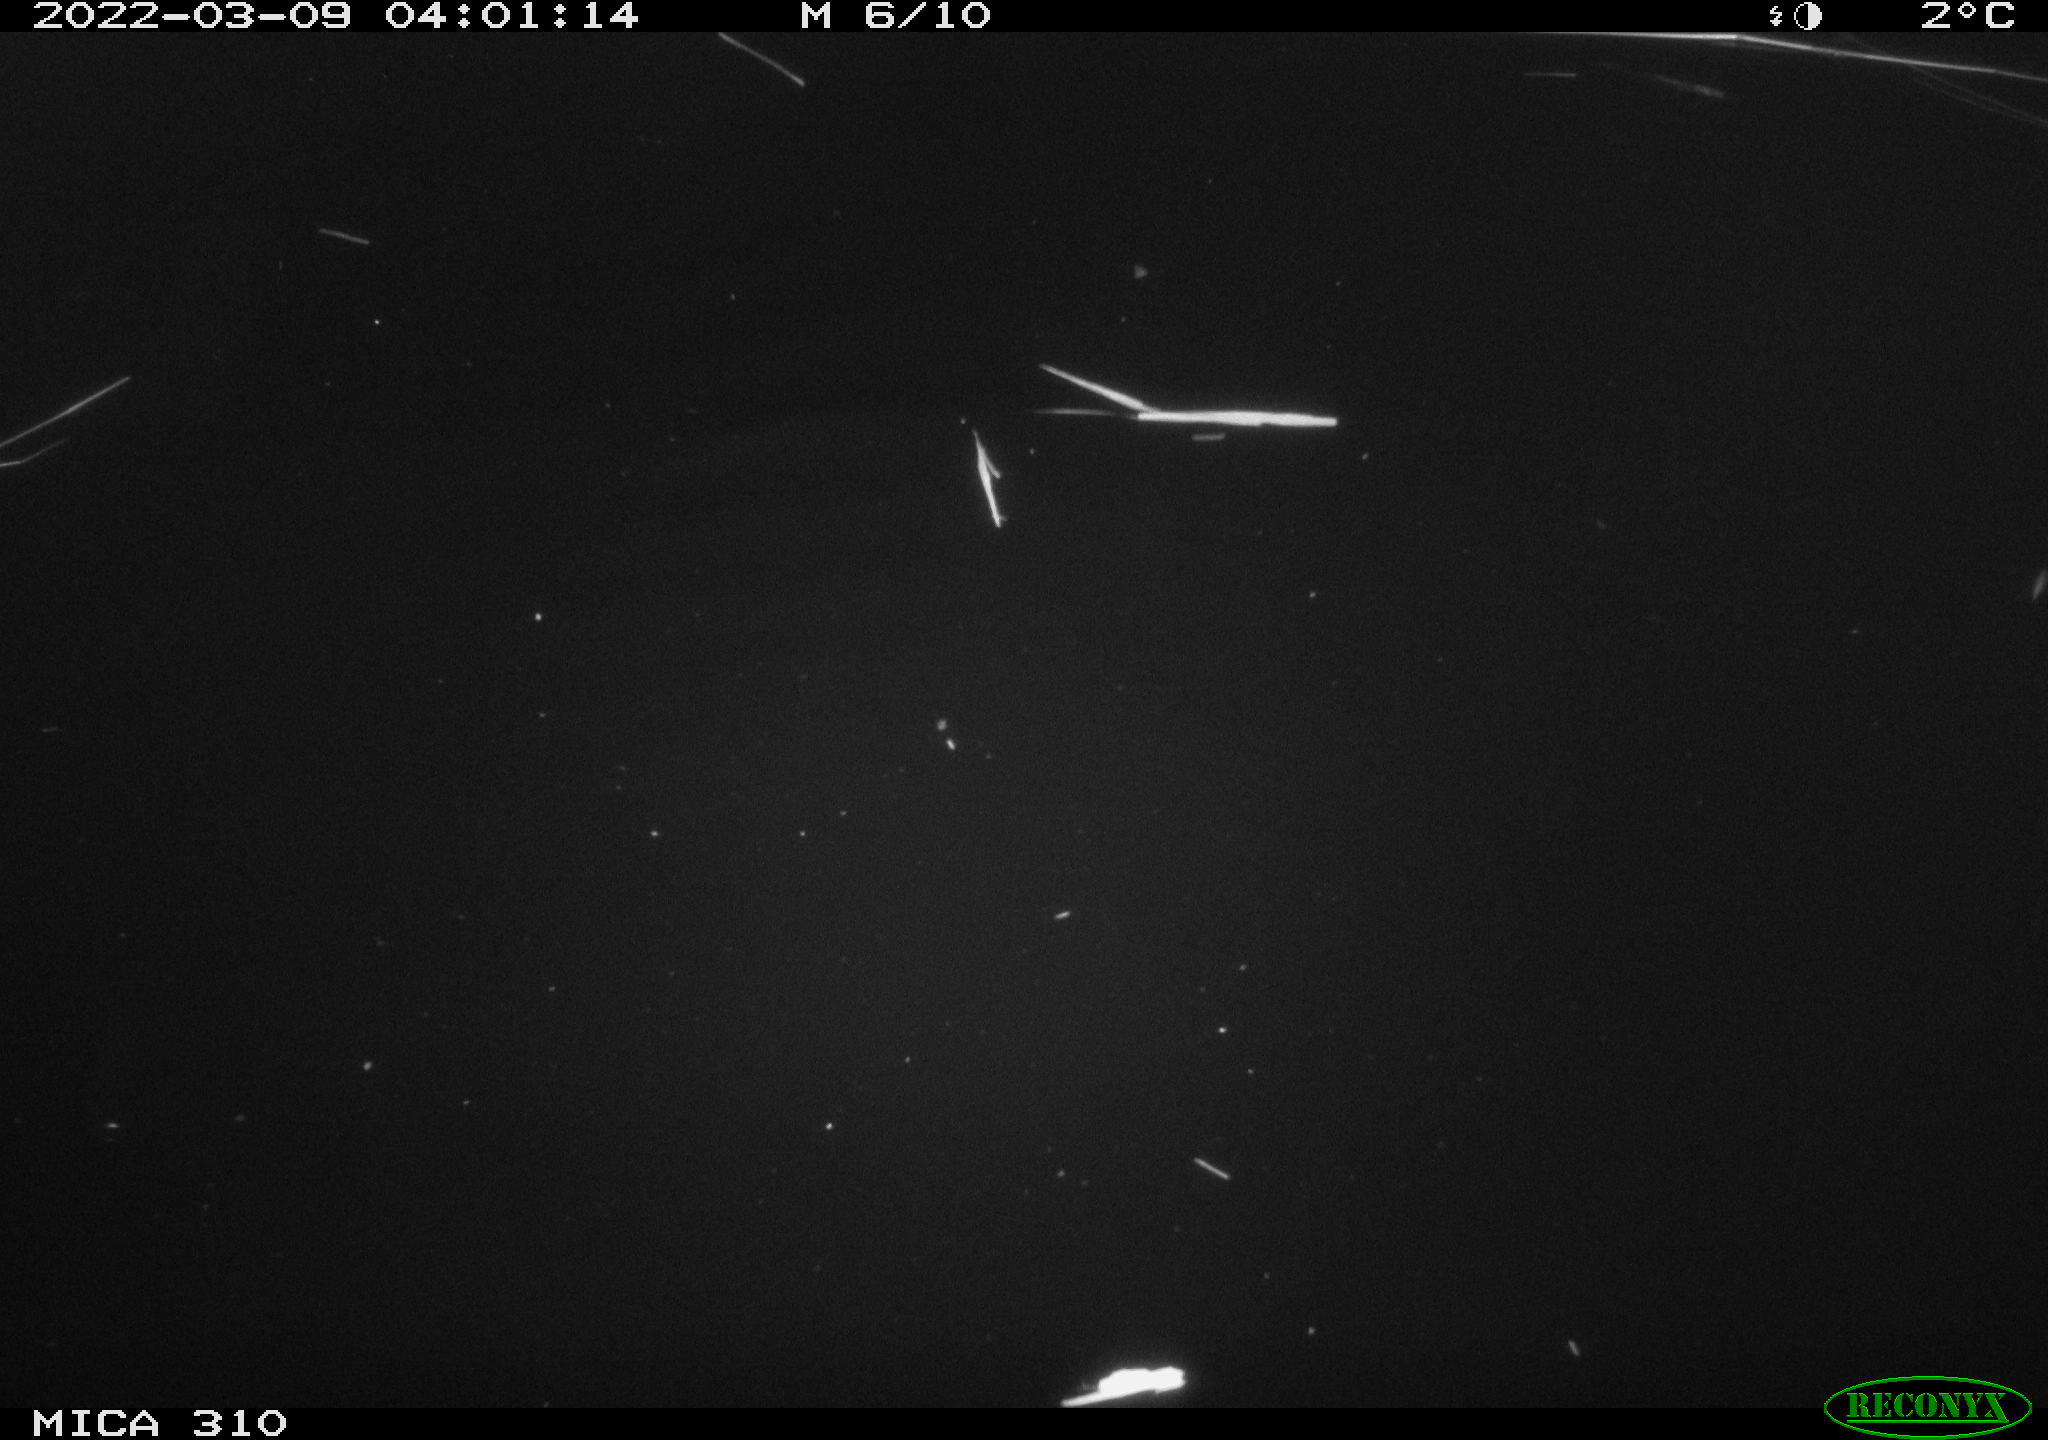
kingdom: Animalia
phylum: Chordata
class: Aves
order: Anseriformes
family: Anatidae
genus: Anas
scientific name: Anas platyrhynchos
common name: Mallard
